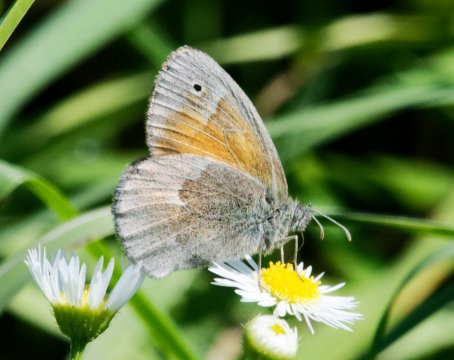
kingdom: Animalia
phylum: Arthropoda
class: Insecta
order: Lepidoptera
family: Nymphalidae
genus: Coenonympha
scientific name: Coenonympha california
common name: California Ringlet
